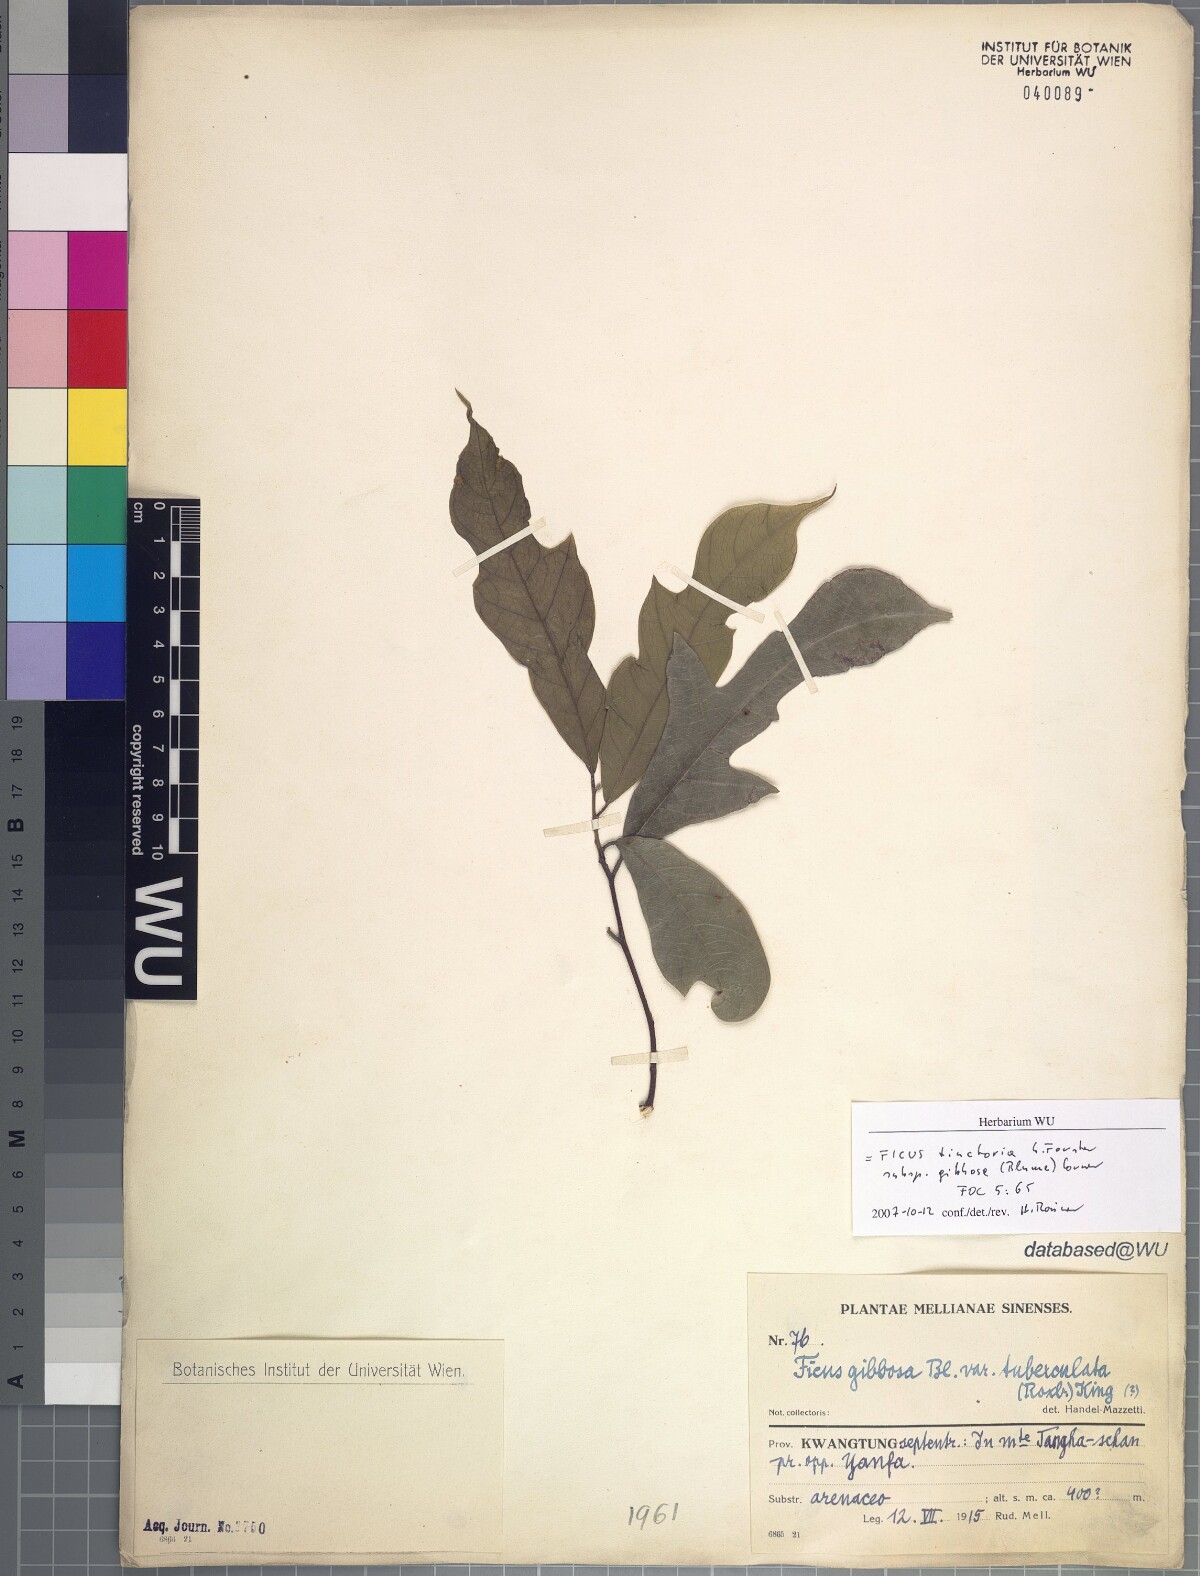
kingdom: Plantae
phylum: Tracheophyta
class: Magnoliopsida
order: Rosales
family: Moraceae
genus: Ficus
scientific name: Ficus tinctoria
